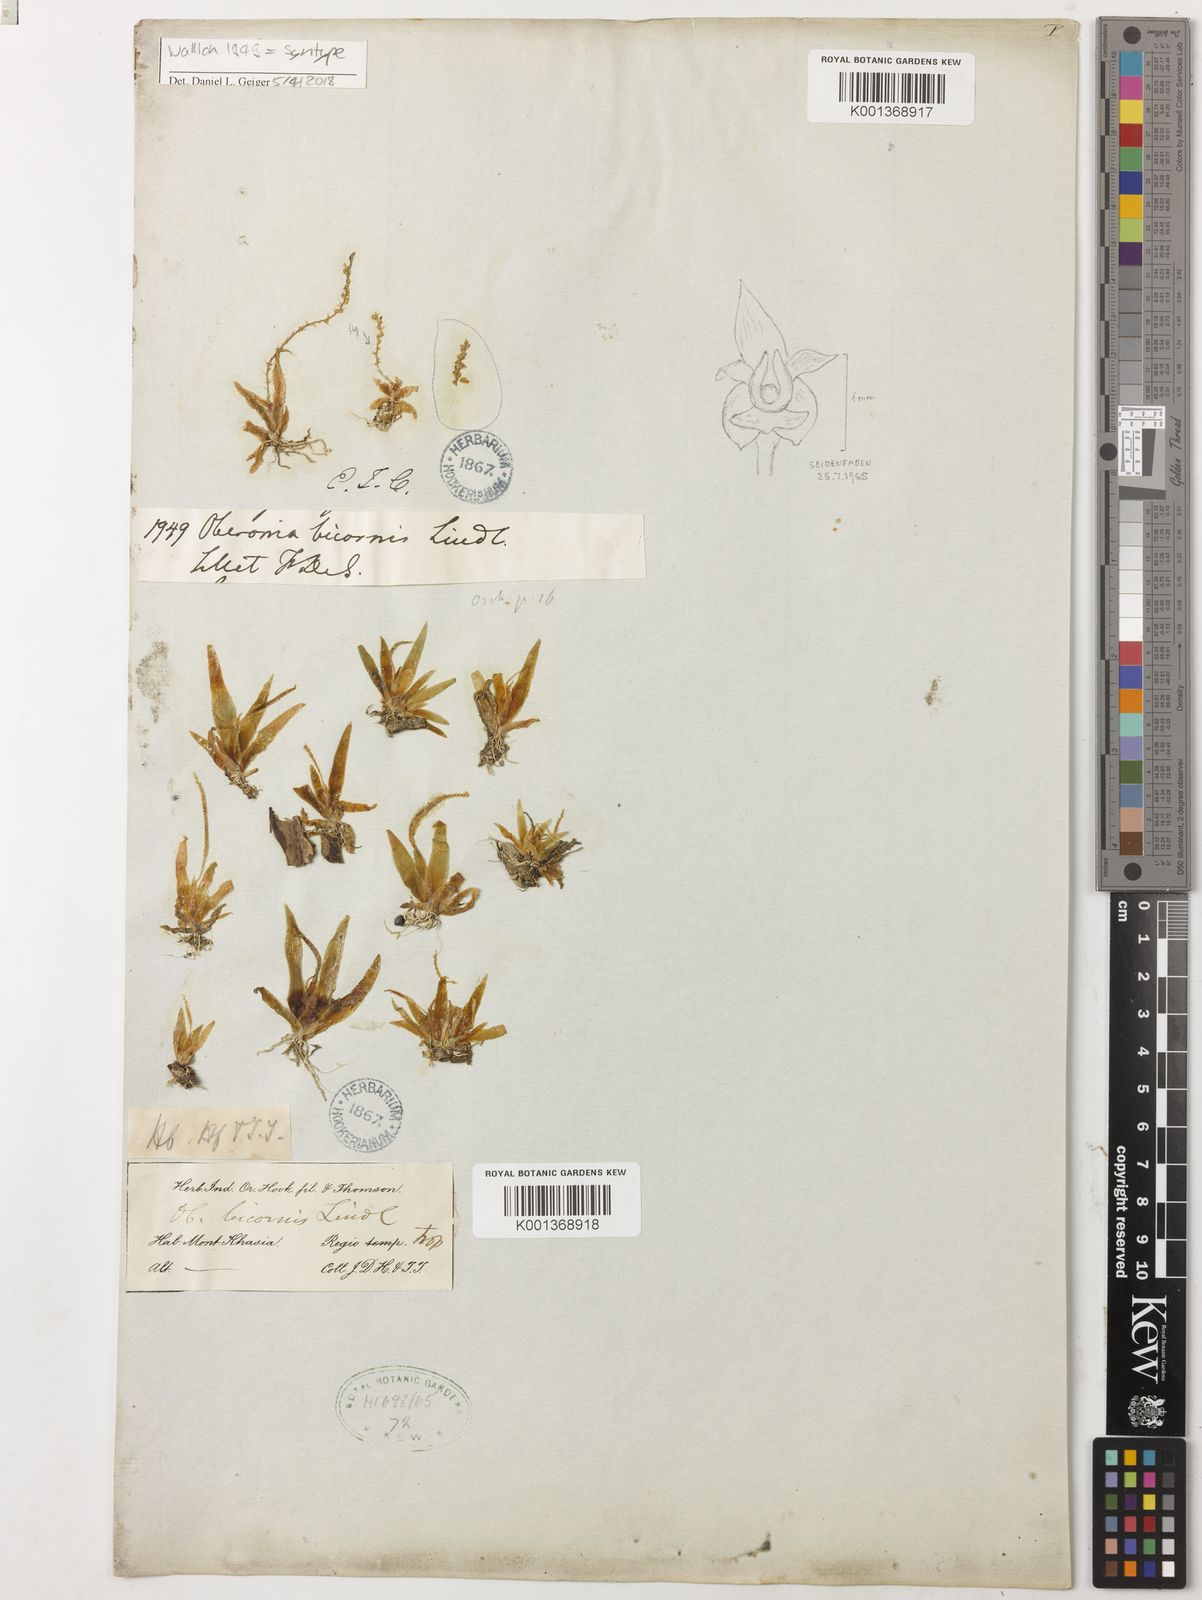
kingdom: Plantae
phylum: Tracheophyta
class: Liliopsida
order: Asparagales
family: Orchidaceae
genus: Oberonia
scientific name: Oberonia bicornis
